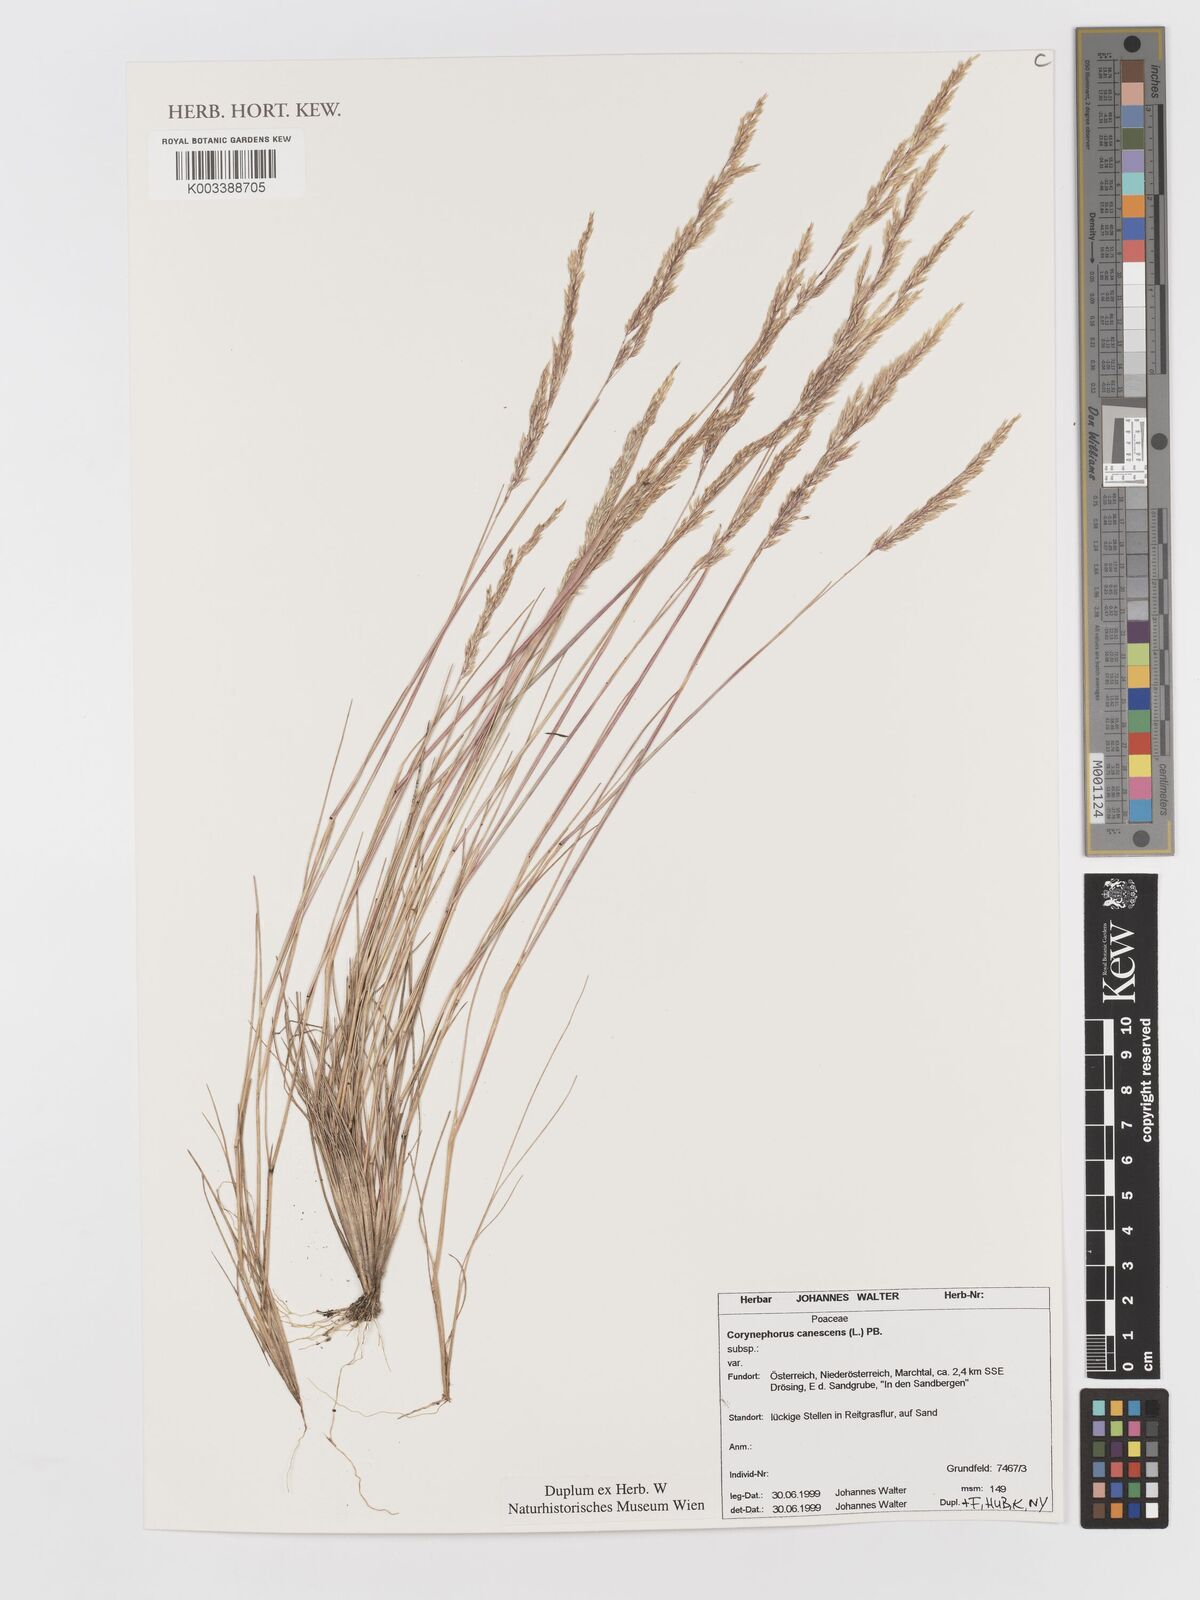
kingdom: Plantae
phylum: Tracheophyta
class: Liliopsida
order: Poales
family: Poaceae
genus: Corynephorus
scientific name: Corynephorus canescens
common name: Grey hair-grass
